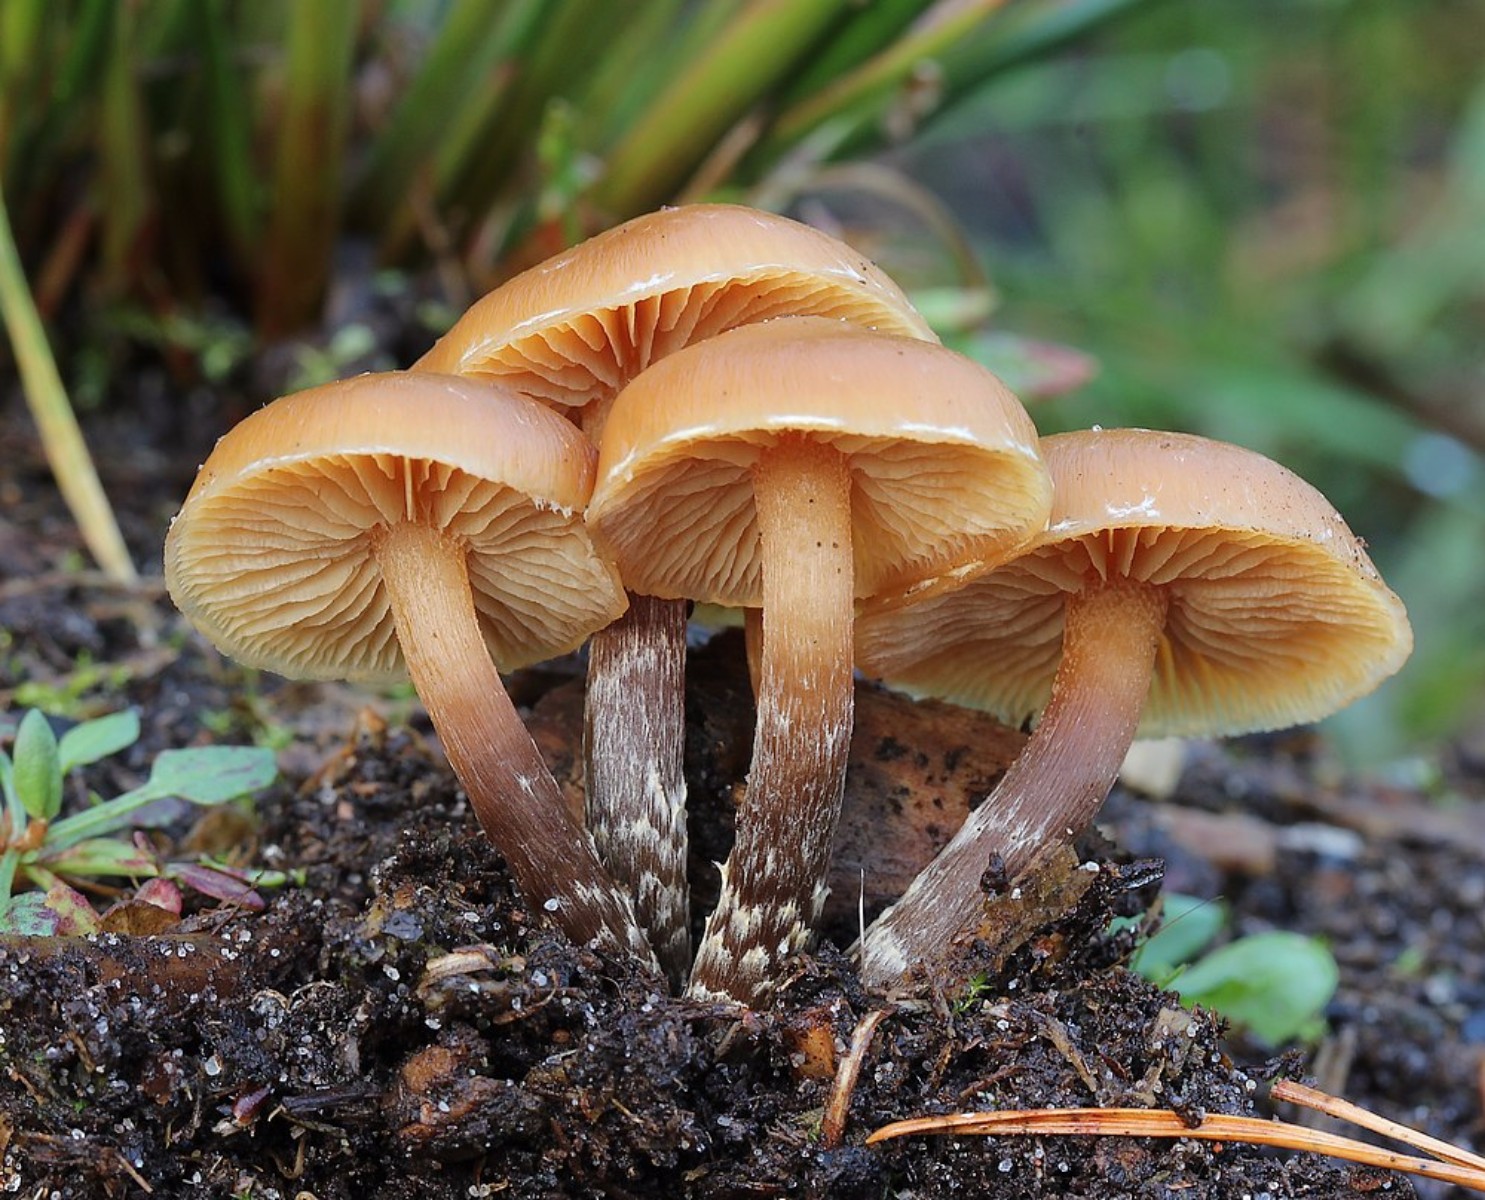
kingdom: Fungi
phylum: Basidiomycota
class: Agaricomycetes
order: Agaricales
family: Hymenogastraceae
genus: Galerina
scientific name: Galerina sideroides
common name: træflis-hjelmhat
